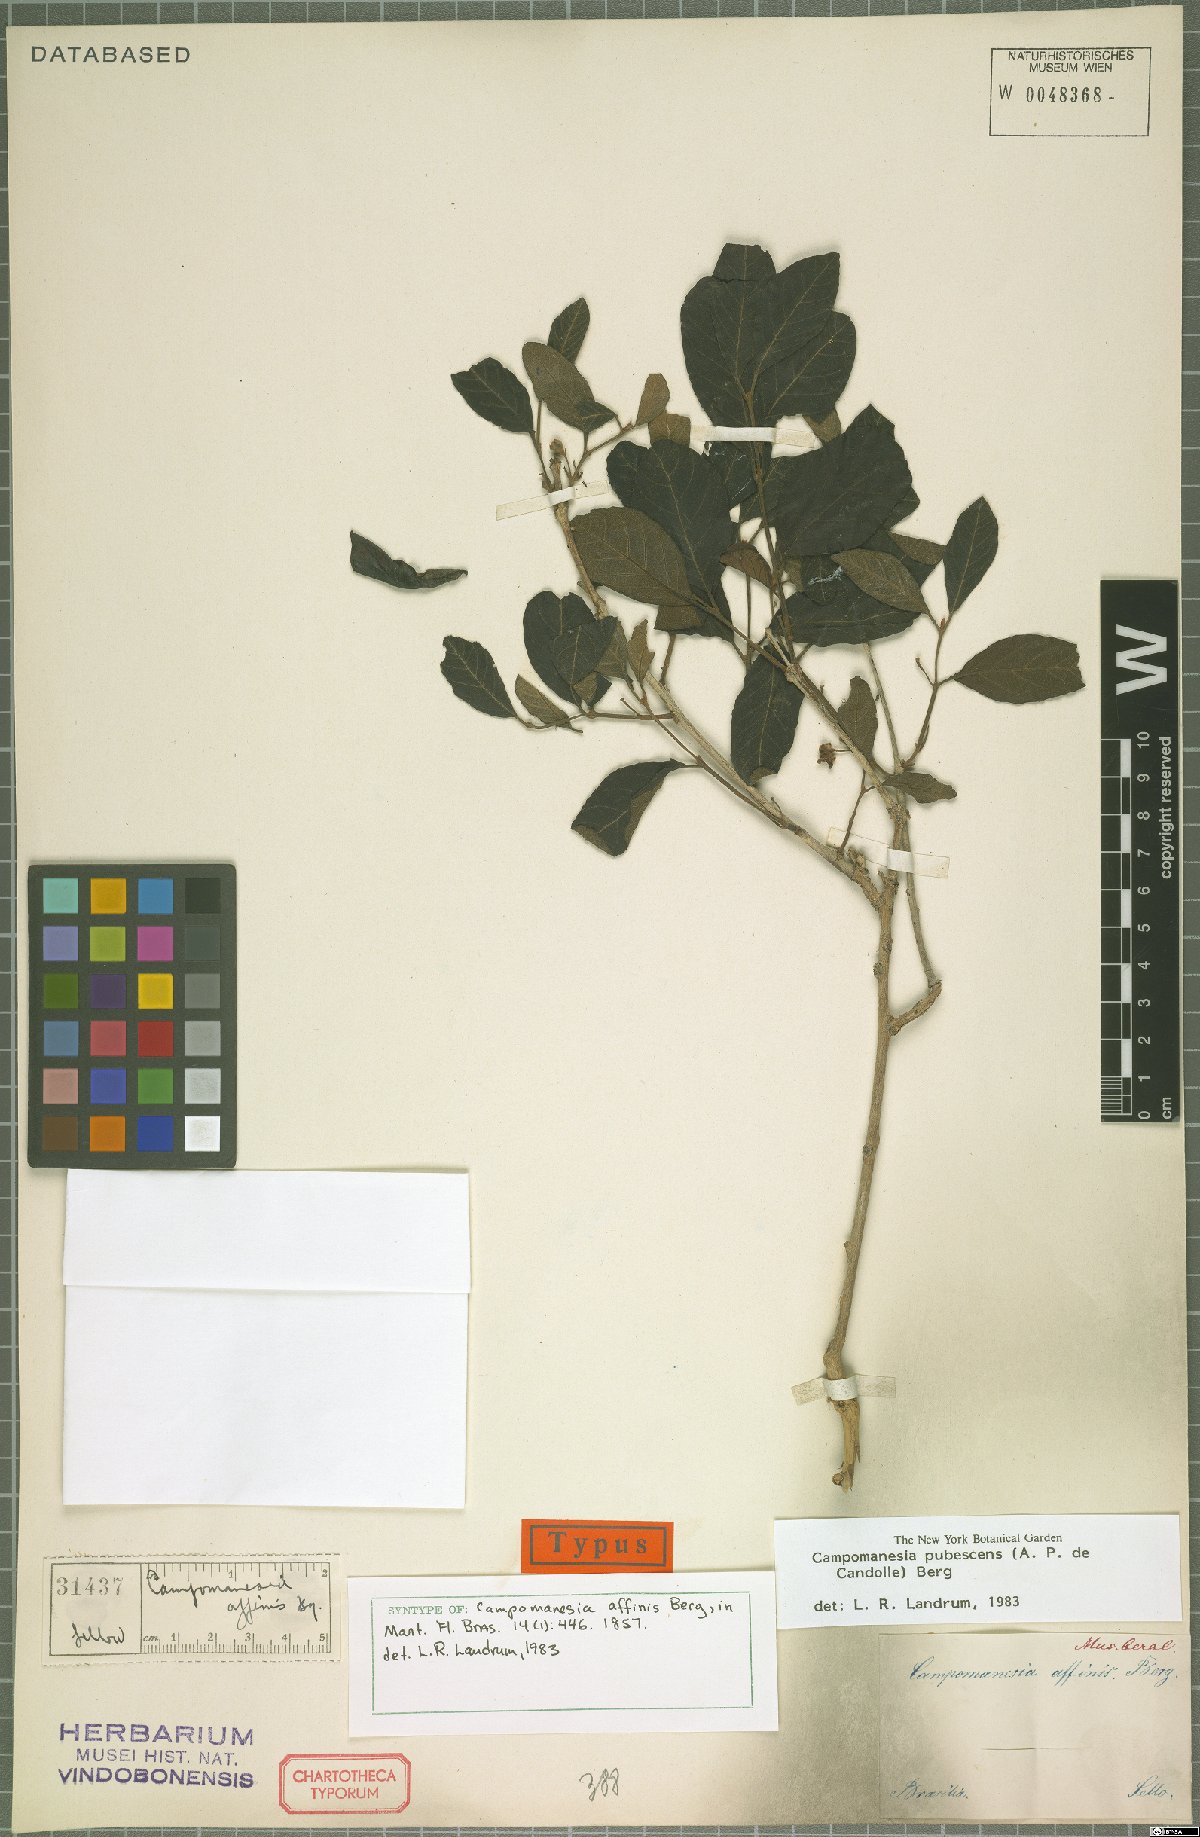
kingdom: Plantae
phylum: Tracheophyta
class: Magnoliopsida
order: Myrtales
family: Myrtaceae
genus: Campomanesia
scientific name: Campomanesia pubescens
